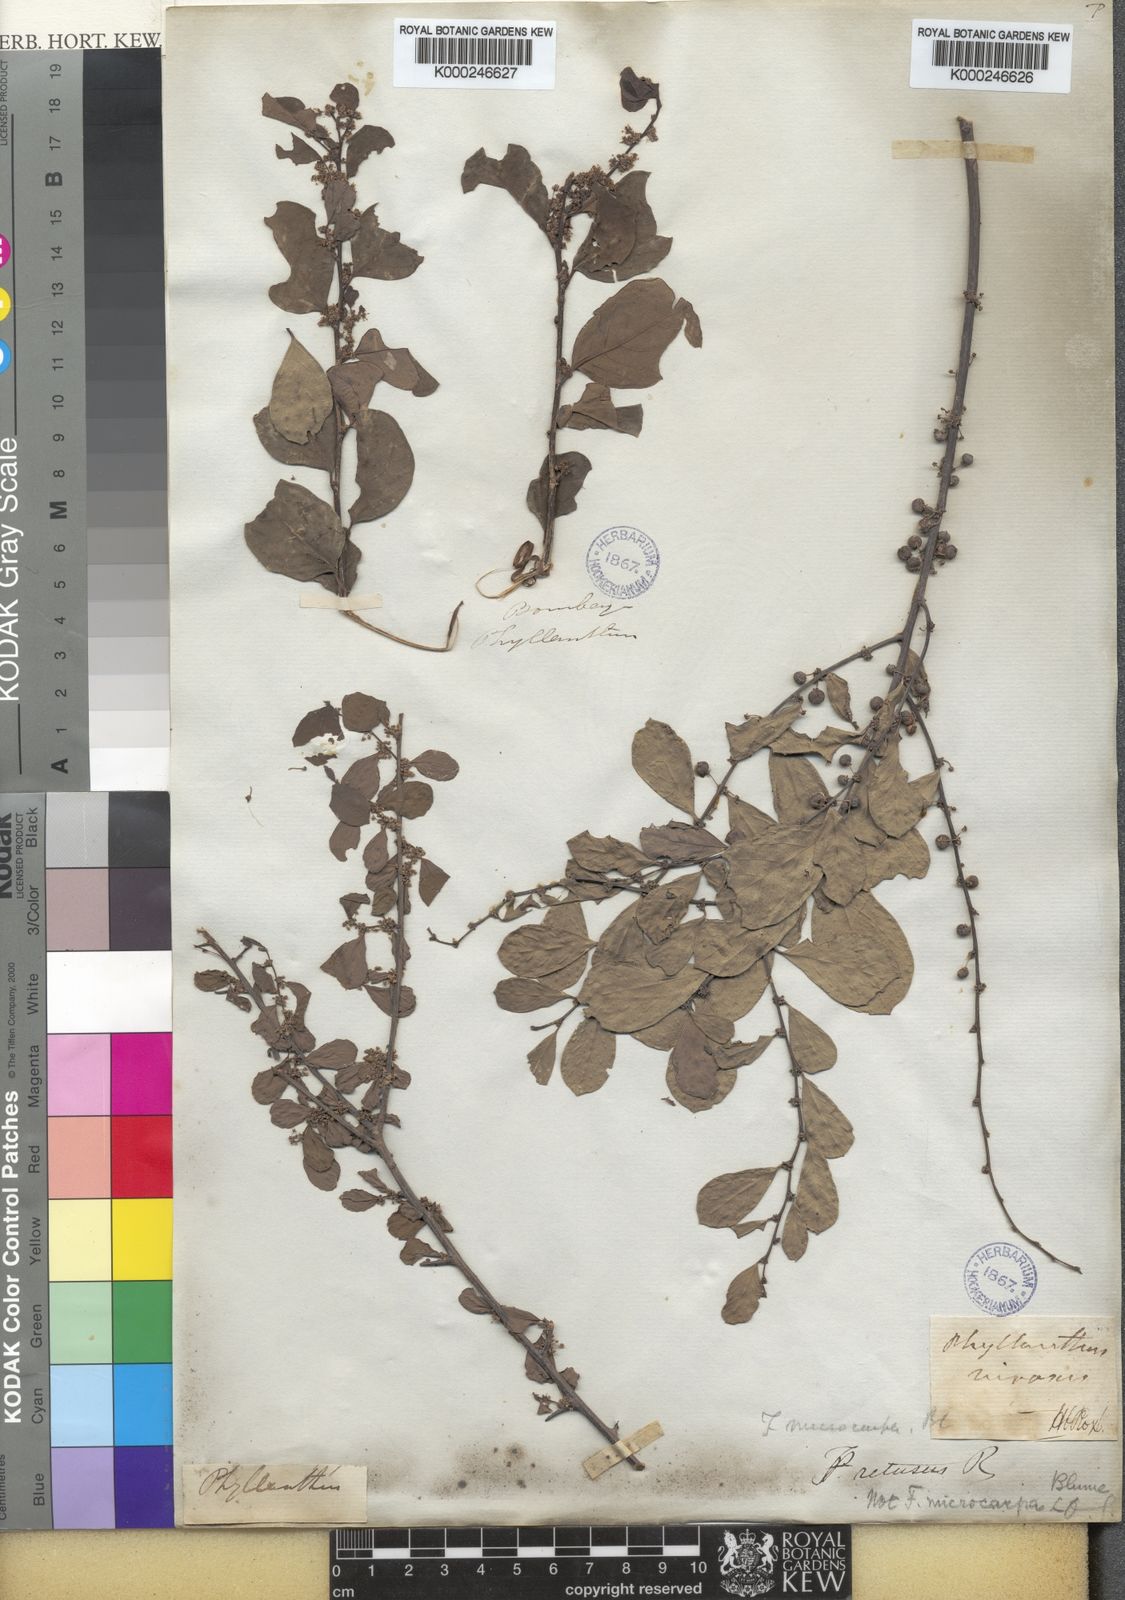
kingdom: Plantae
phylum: Tracheophyta
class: Magnoliopsida
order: Malpighiales
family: Phyllanthaceae
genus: Flueggea
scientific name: Flueggea virosa
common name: Common bushweed
